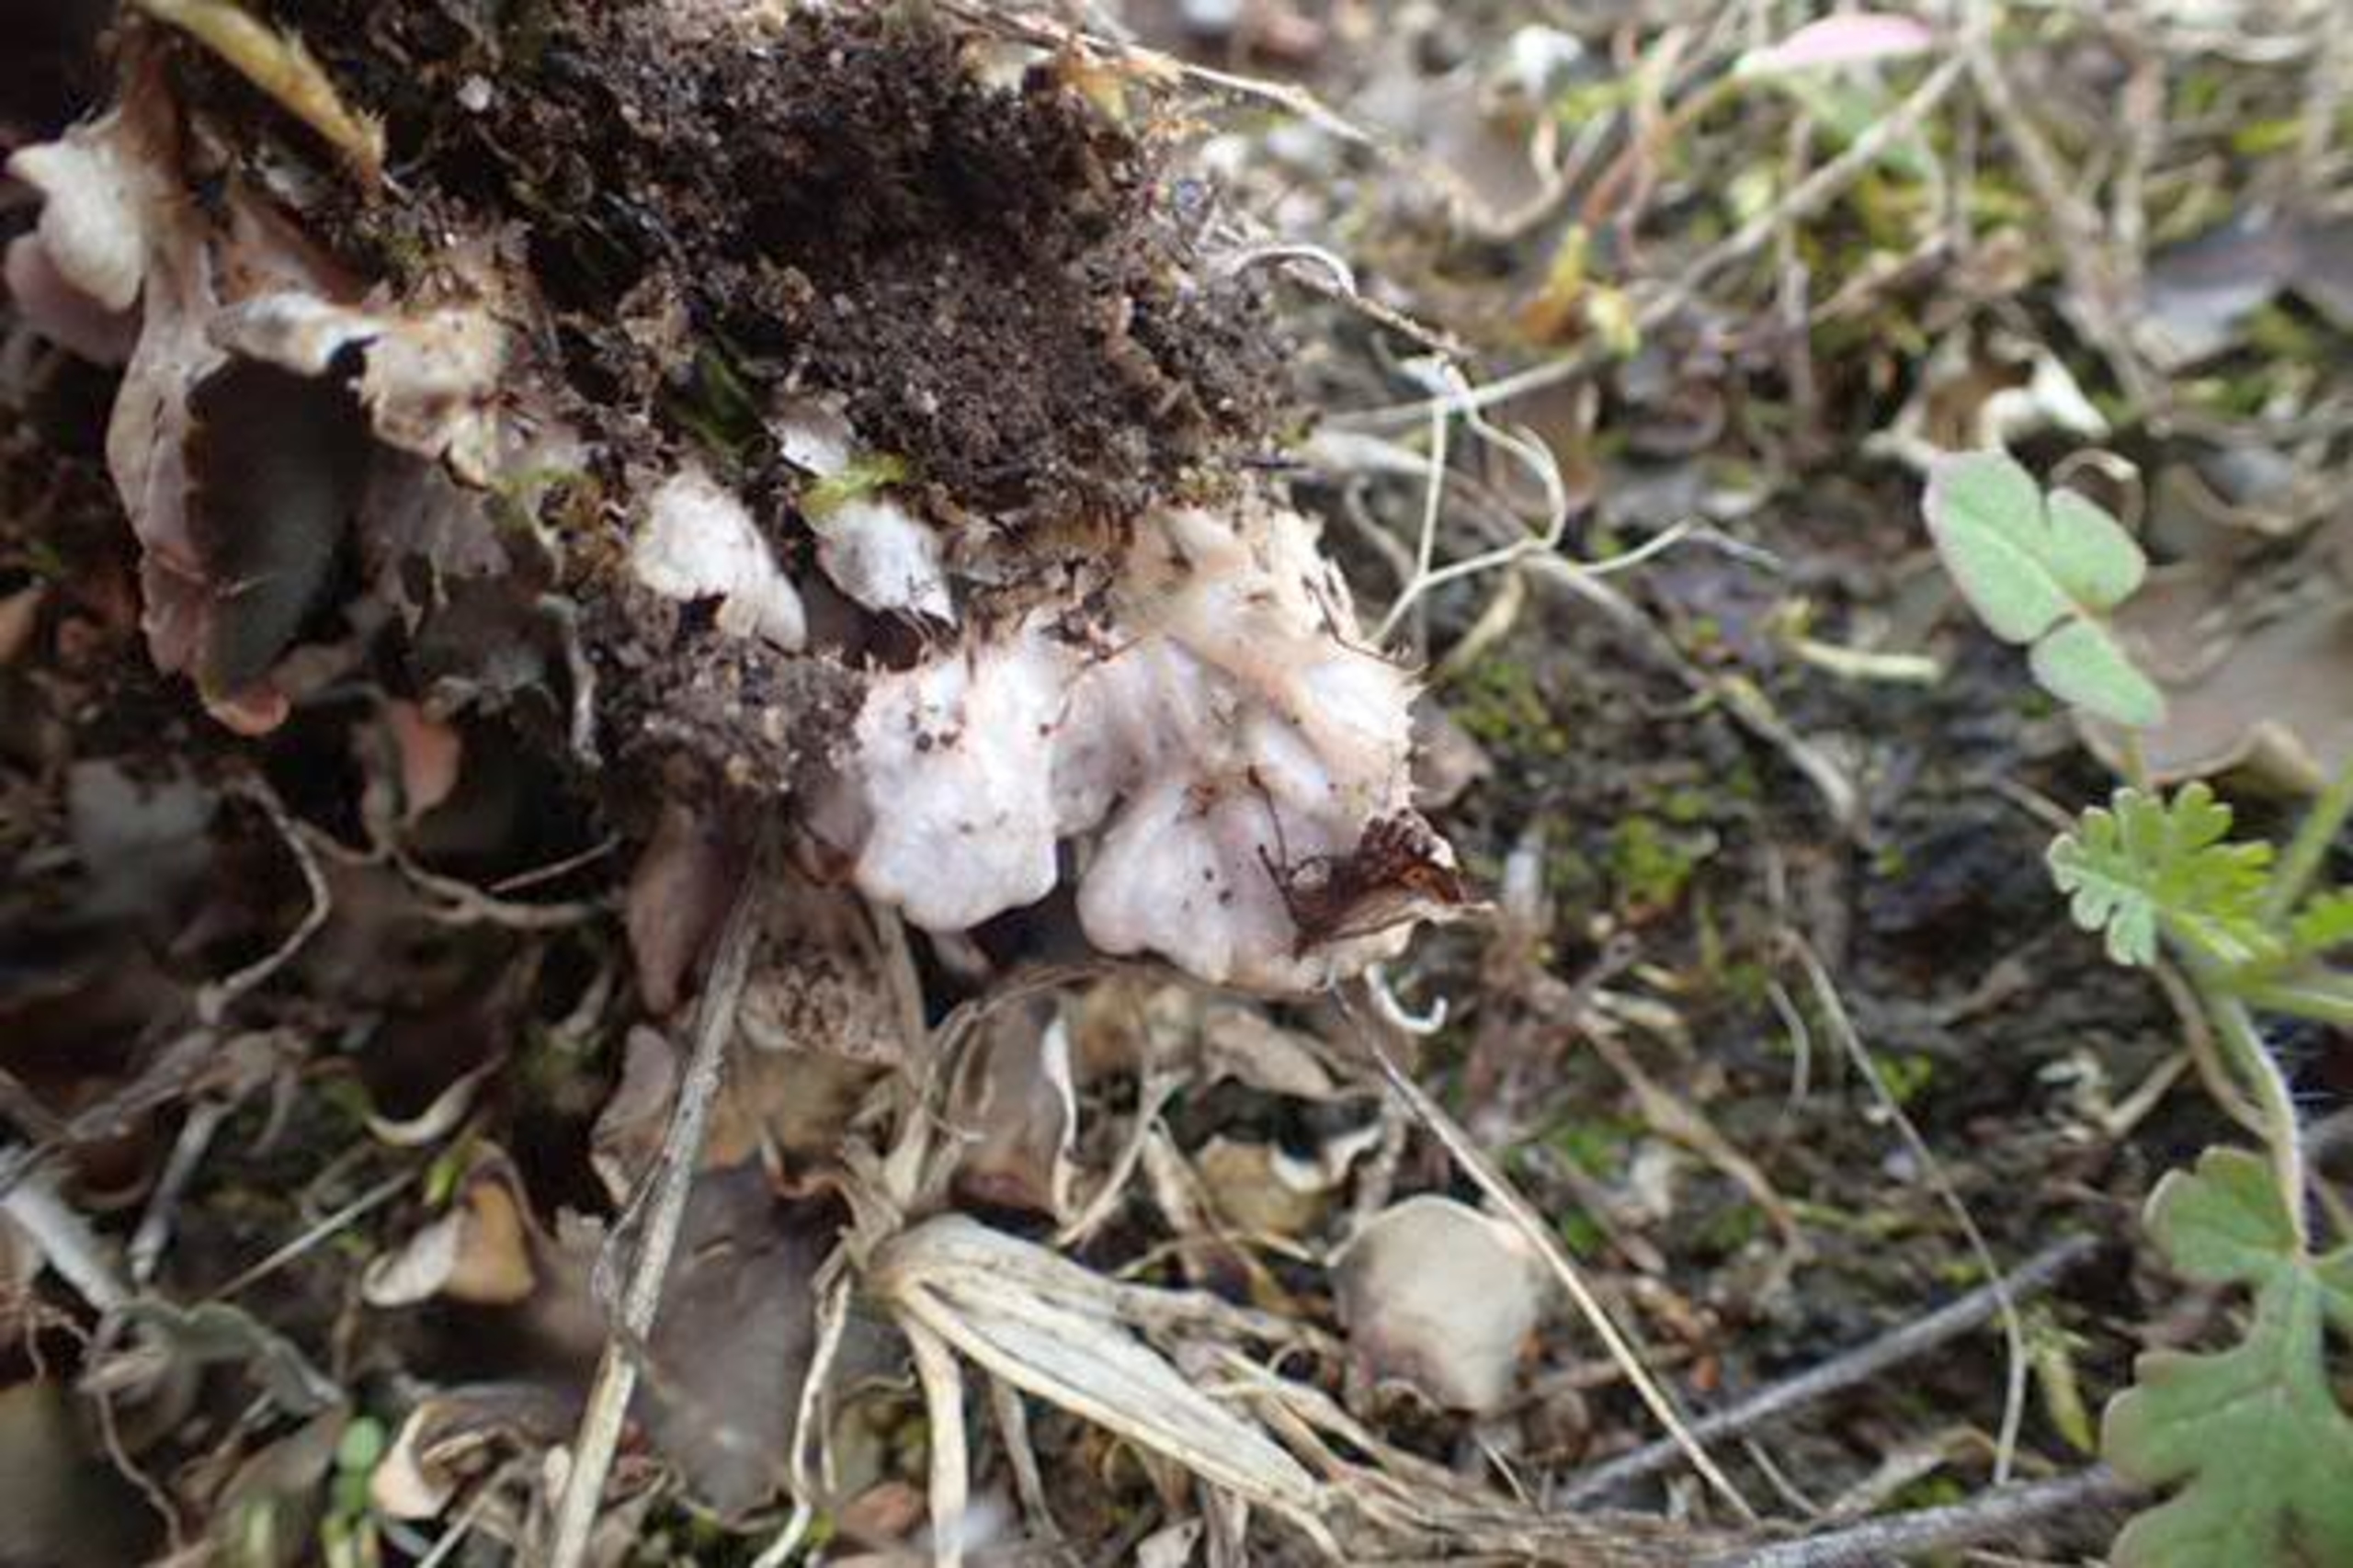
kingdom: Fungi
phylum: Ascomycota
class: Lecanoromycetes
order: Peltigerales
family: Peltigeraceae
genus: Peltigera
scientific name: Peltigera didactyla
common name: Liden skjoldlav
